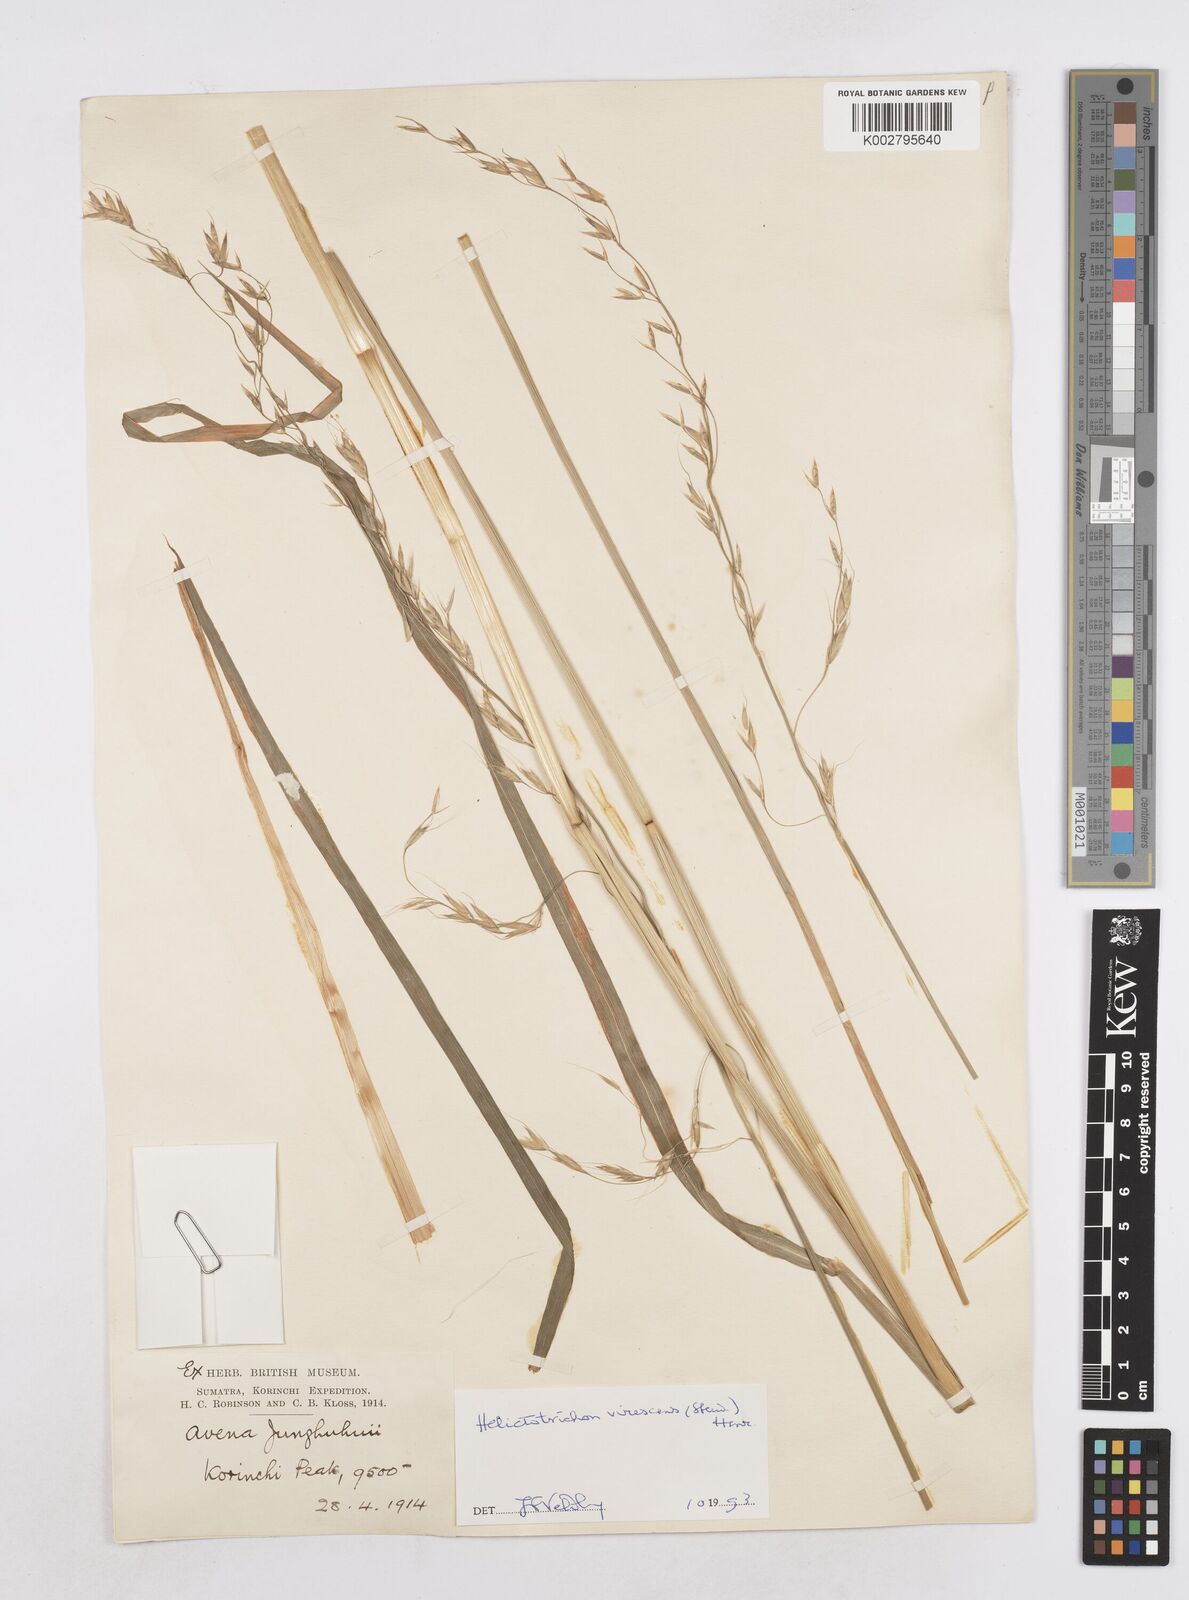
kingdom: Plantae
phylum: Tracheophyta
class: Liliopsida
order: Poales
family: Poaceae
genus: Trisetopsis
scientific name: Trisetopsis junghuhnii
